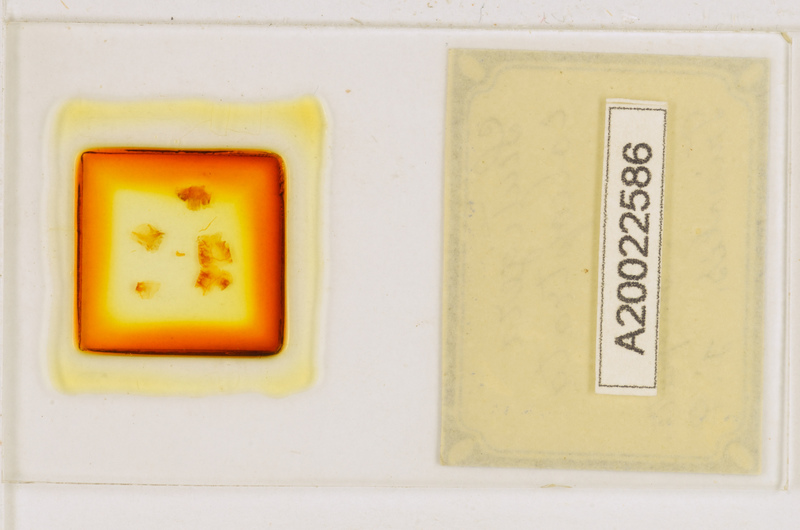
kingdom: Animalia
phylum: Arthropoda
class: Chilopoda
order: Scutigeromorpha
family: Scutigeridae
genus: Scutigera
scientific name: Scutigera coleoptrata
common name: House centipede
